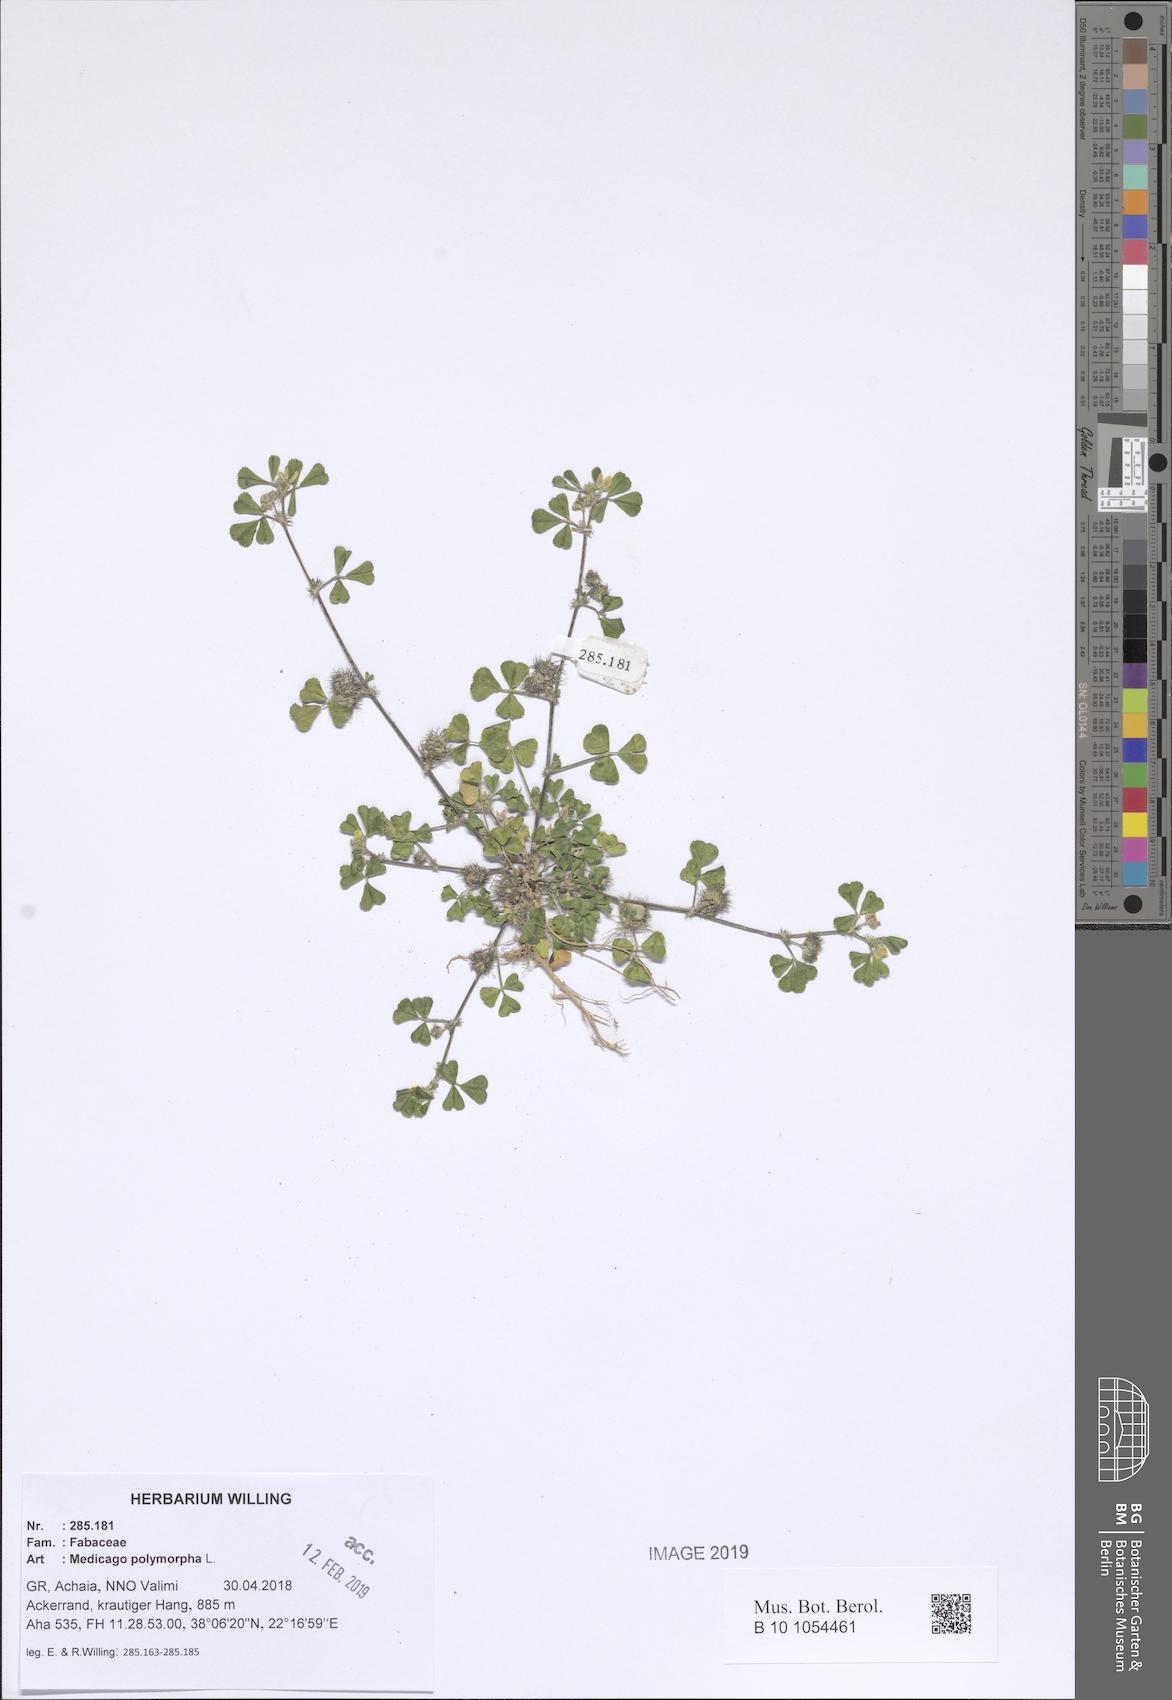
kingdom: Plantae
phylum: Tracheophyta
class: Magnoliopsida
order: Fabales
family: Fabaceae
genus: Medicago
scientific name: Medicago polymorpha
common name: Burclover
